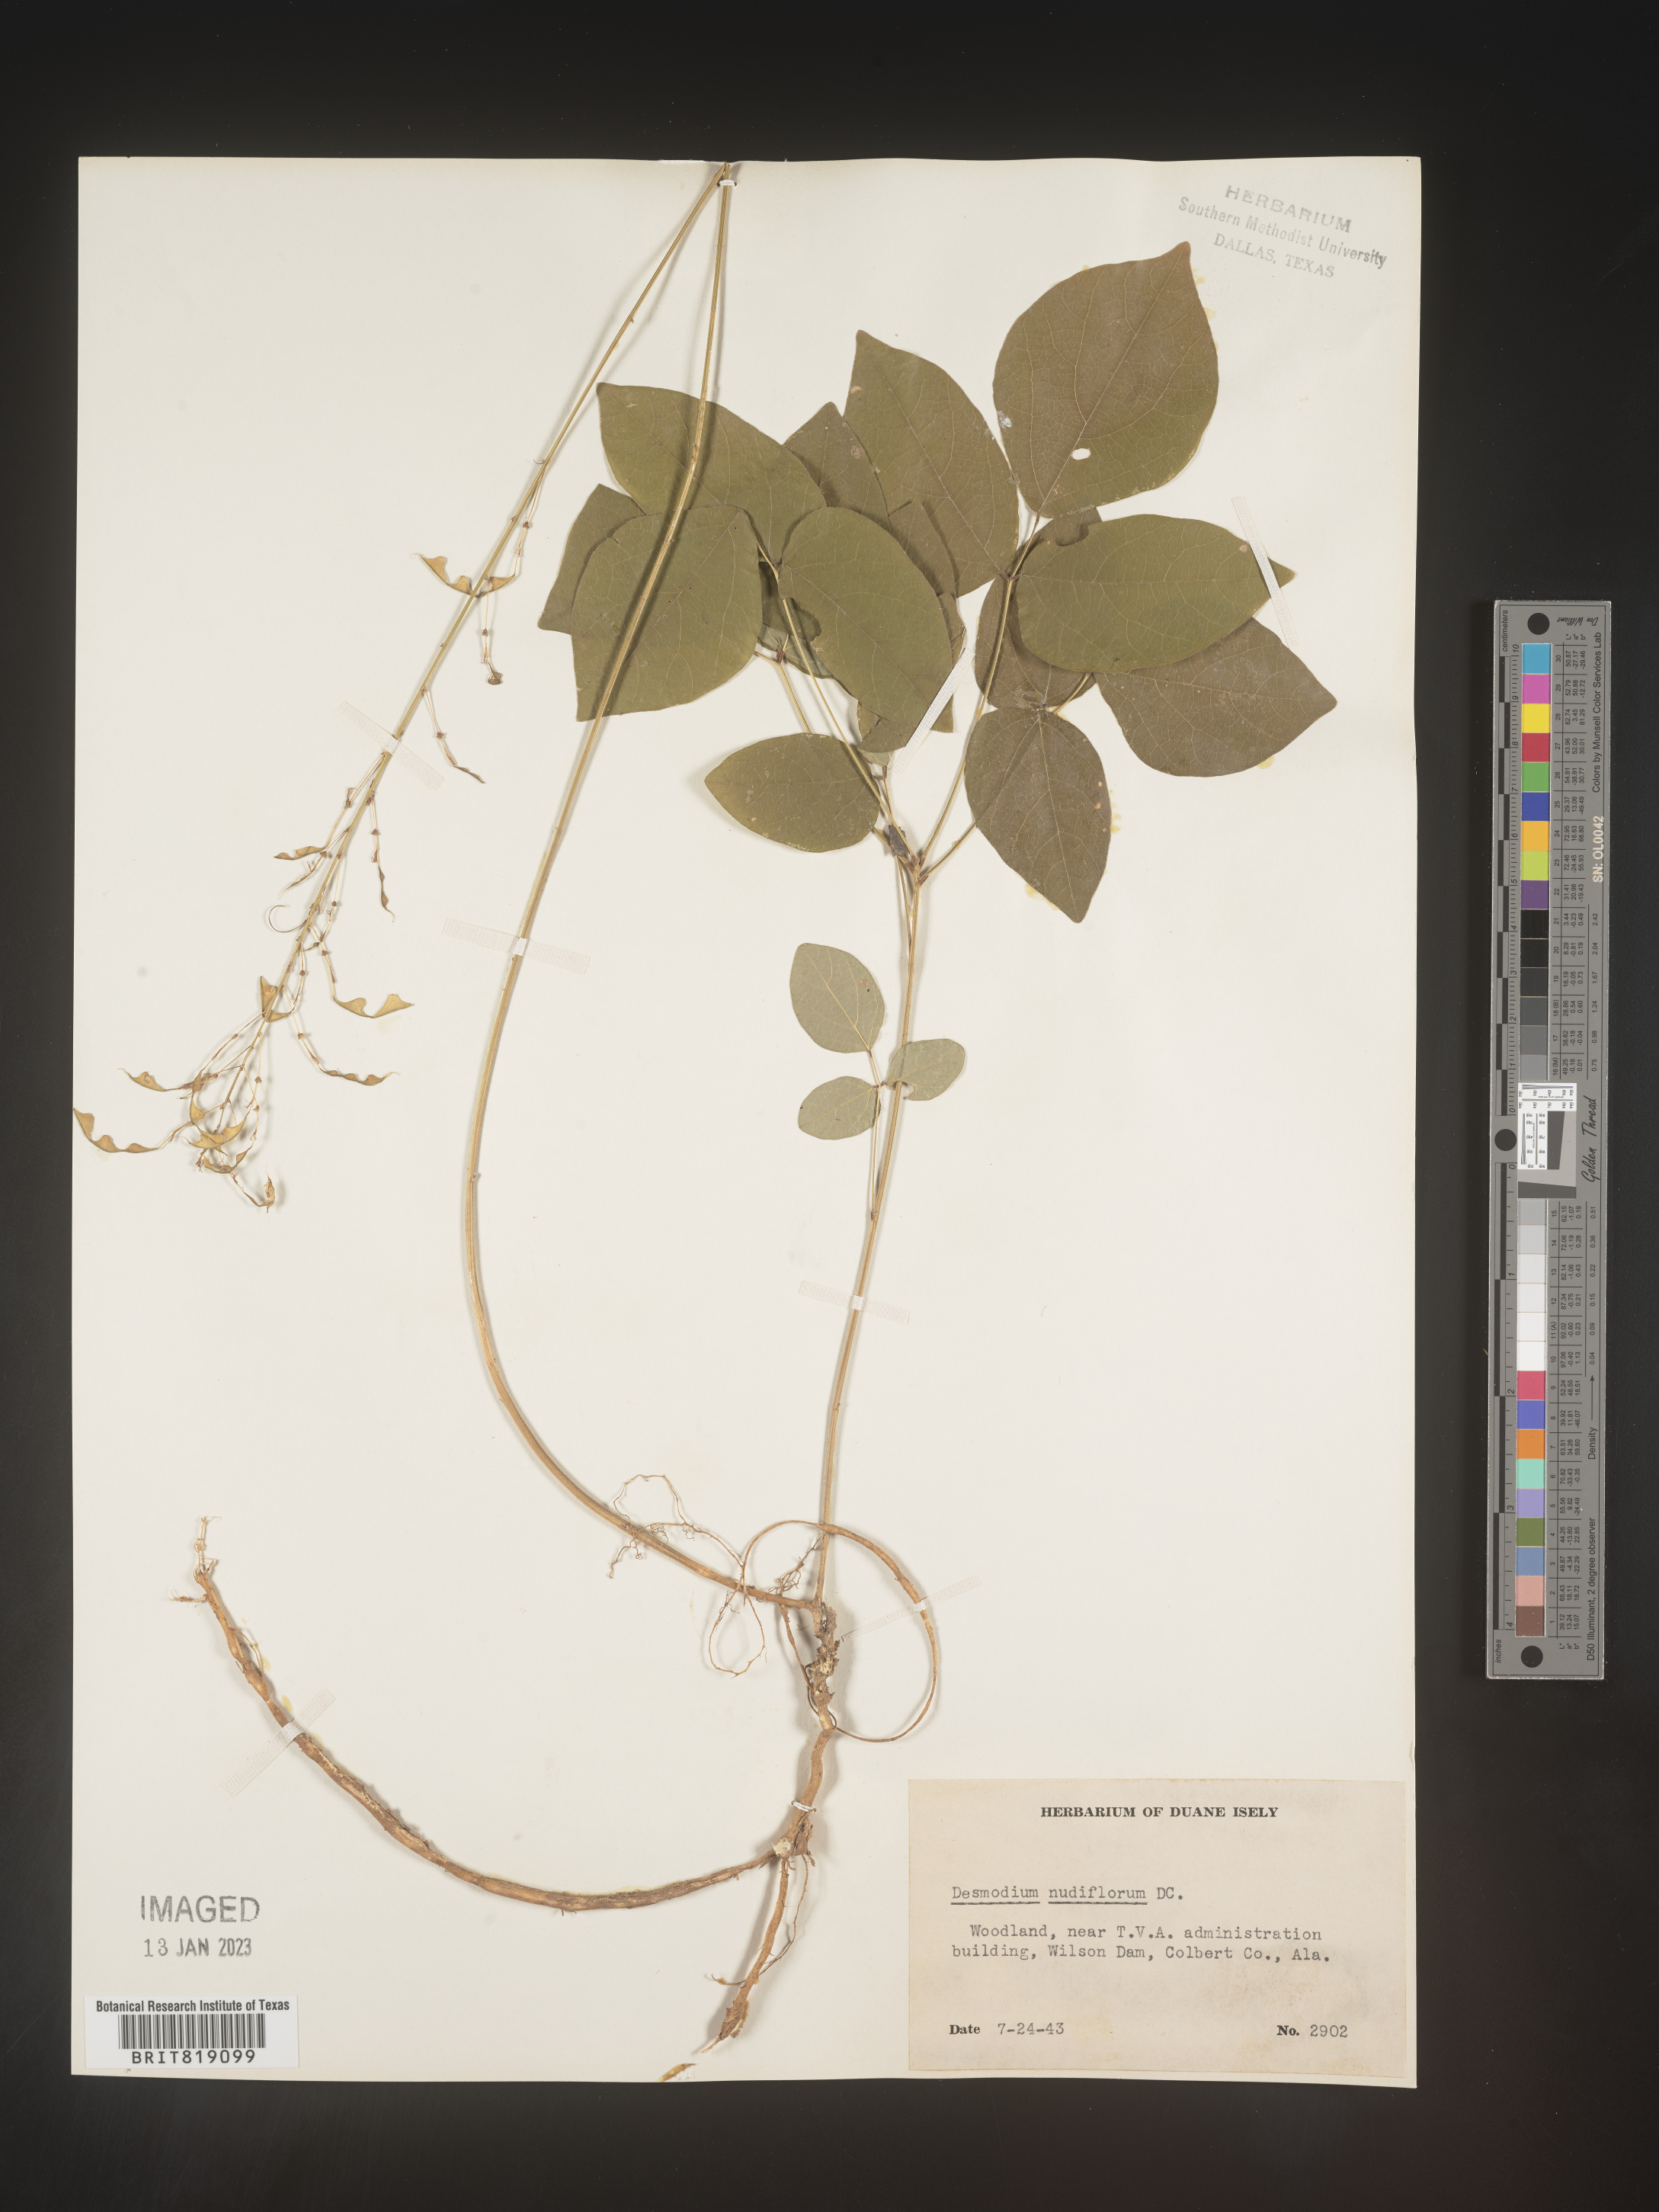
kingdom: Plantae
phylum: Tracheophyta
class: Magnoliopsida
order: Fabales
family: Fabaceae
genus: Hylodesmum
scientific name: Hylodesmum nudiflorum
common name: Bare-stemmed tick-trefoil
